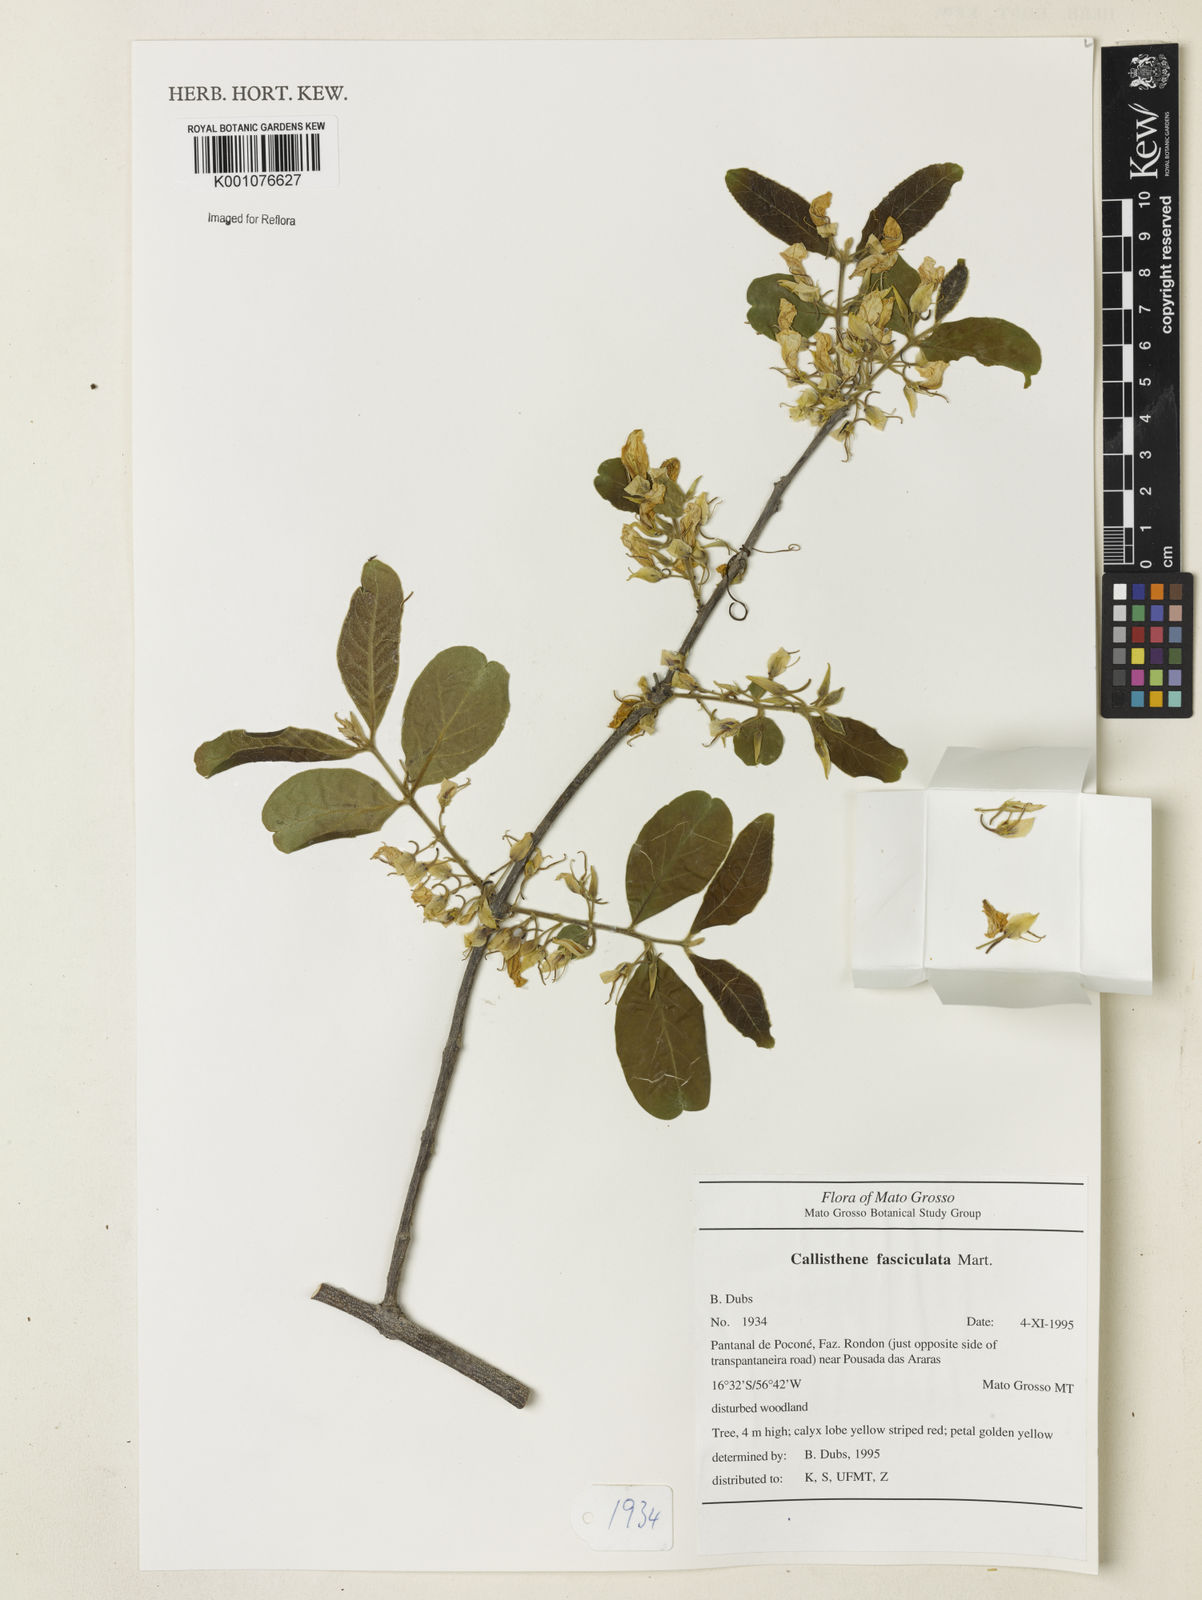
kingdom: Plantae
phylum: Tracheophyta
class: Magnoliopsida
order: Myrtales
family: Vochysiaceae
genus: Callisthene
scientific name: Callisthene fasciculata
